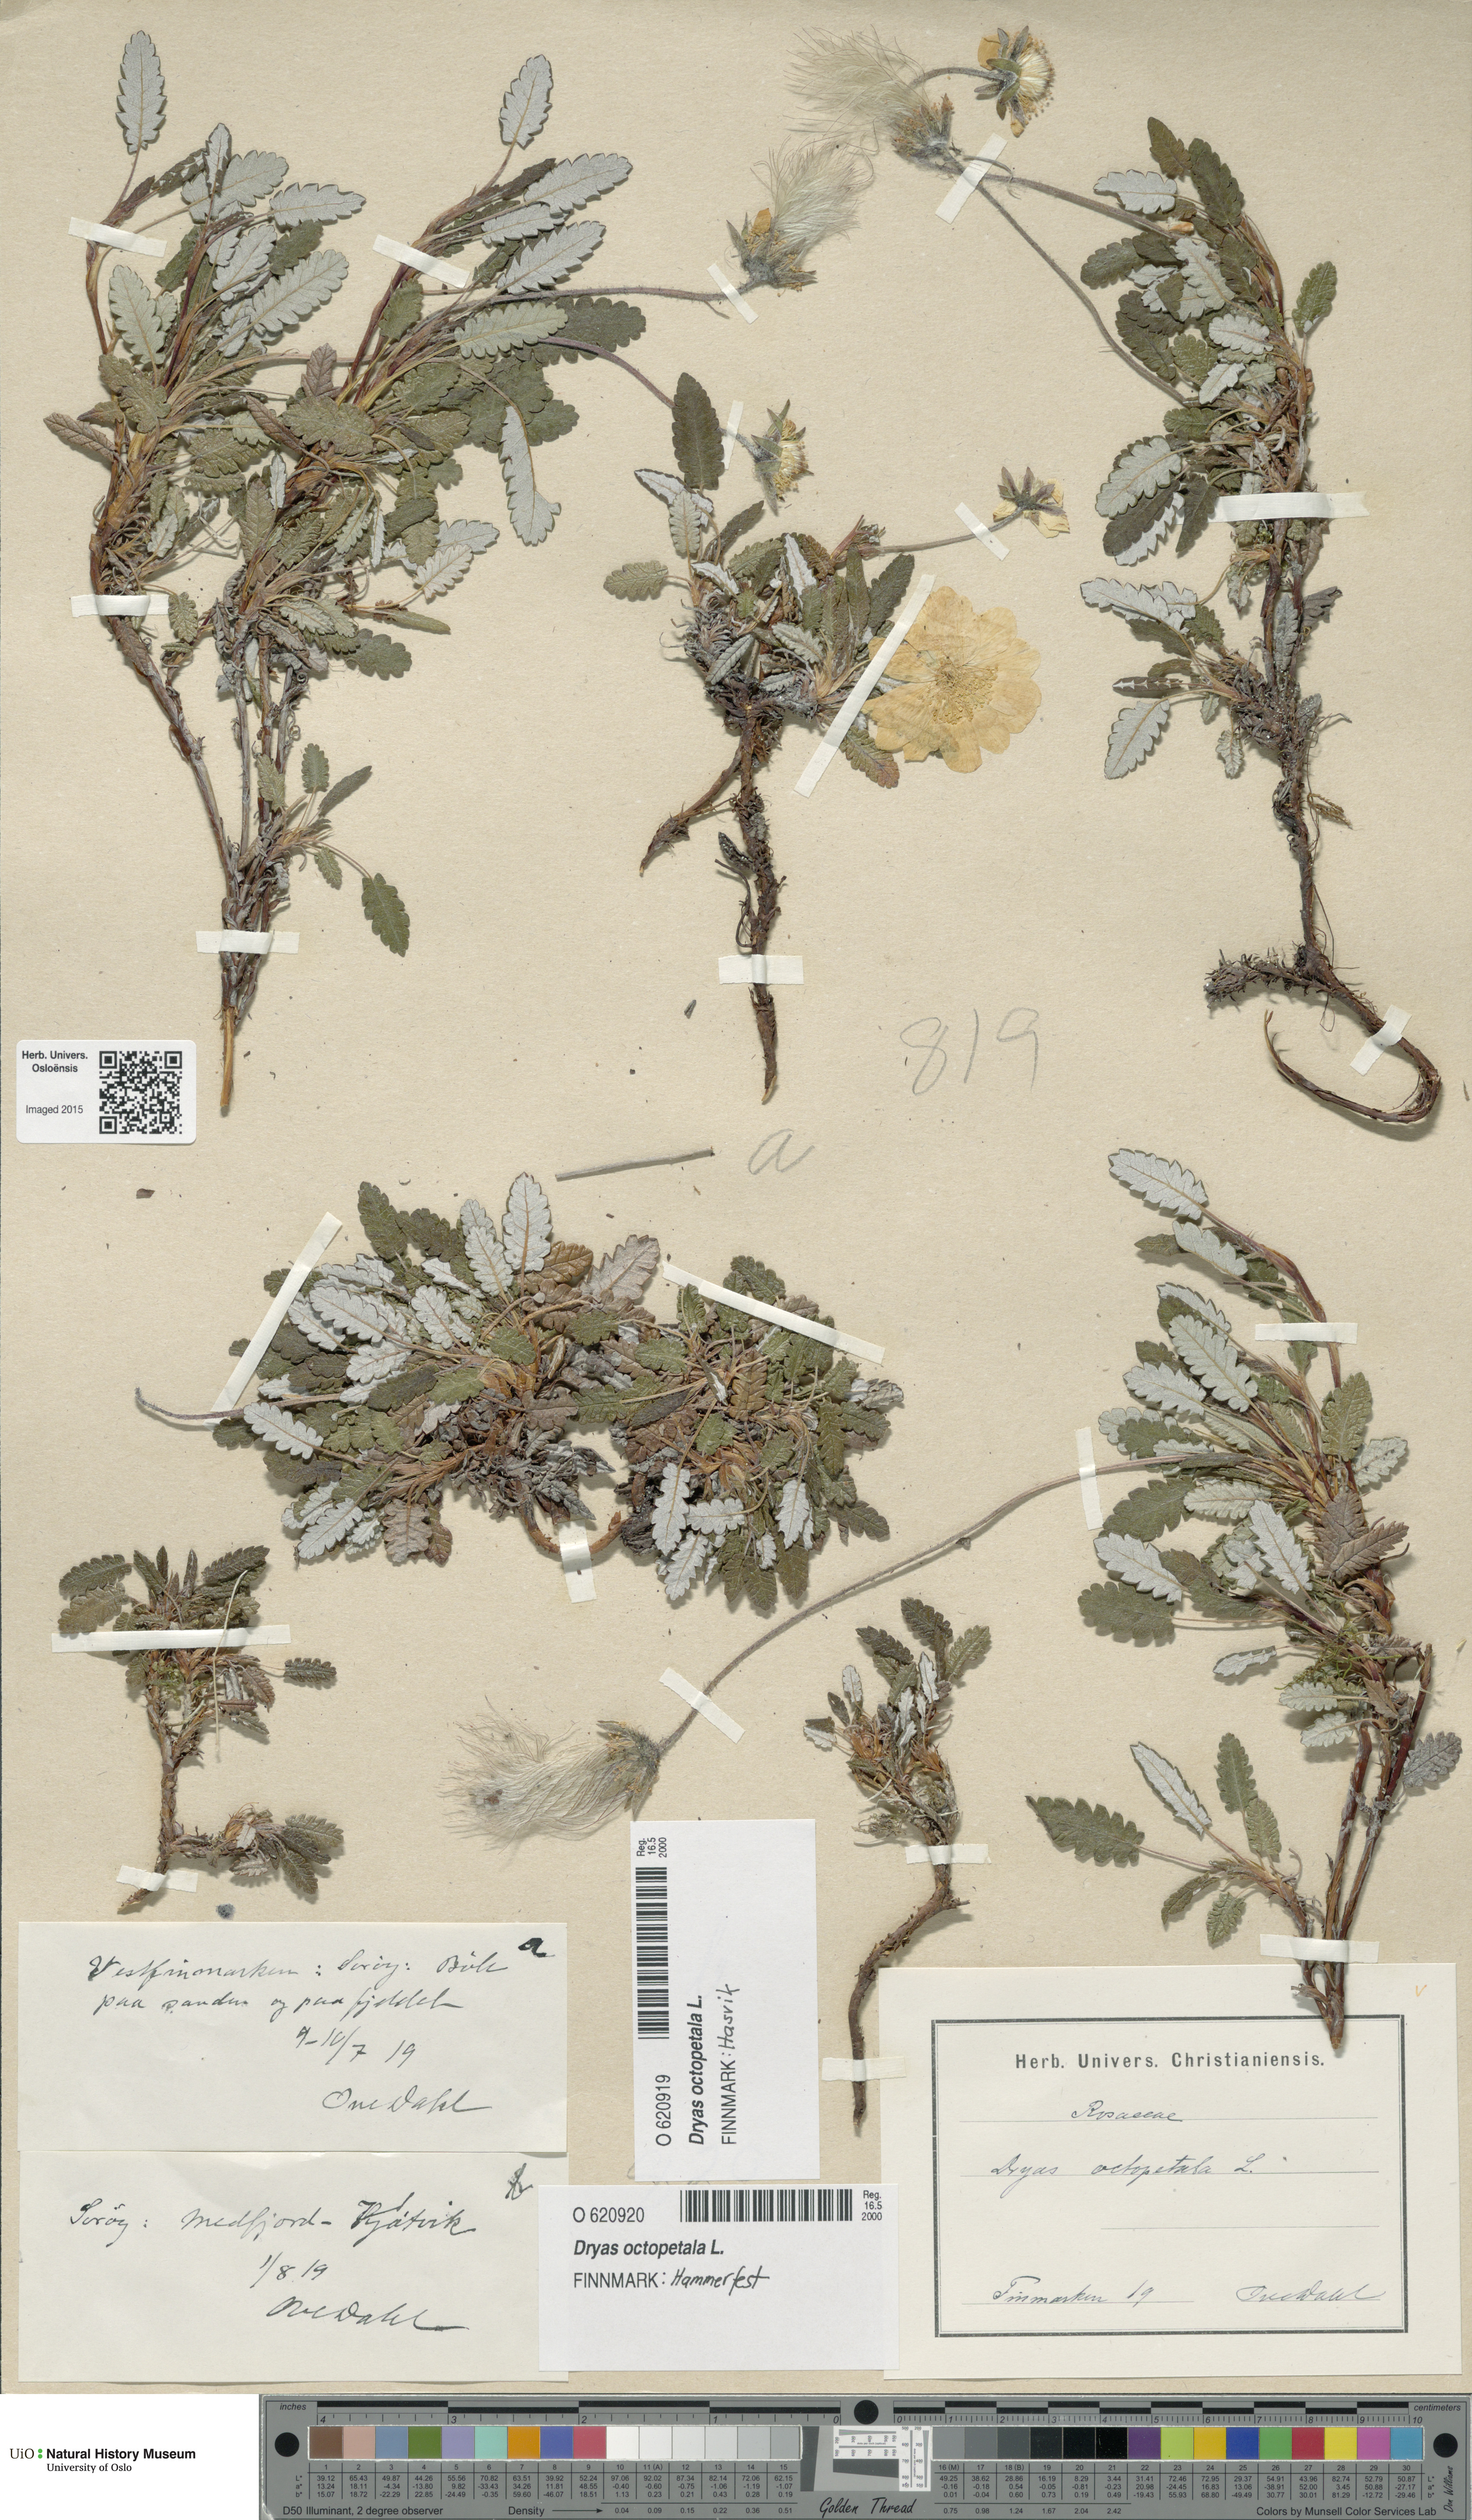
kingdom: Plantae
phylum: Tracheophyta
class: Magnoliopsida
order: Rosales
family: Rosaceae
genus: Dryas
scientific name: Dryas octopetala
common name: Eight-petal mountain-avens
